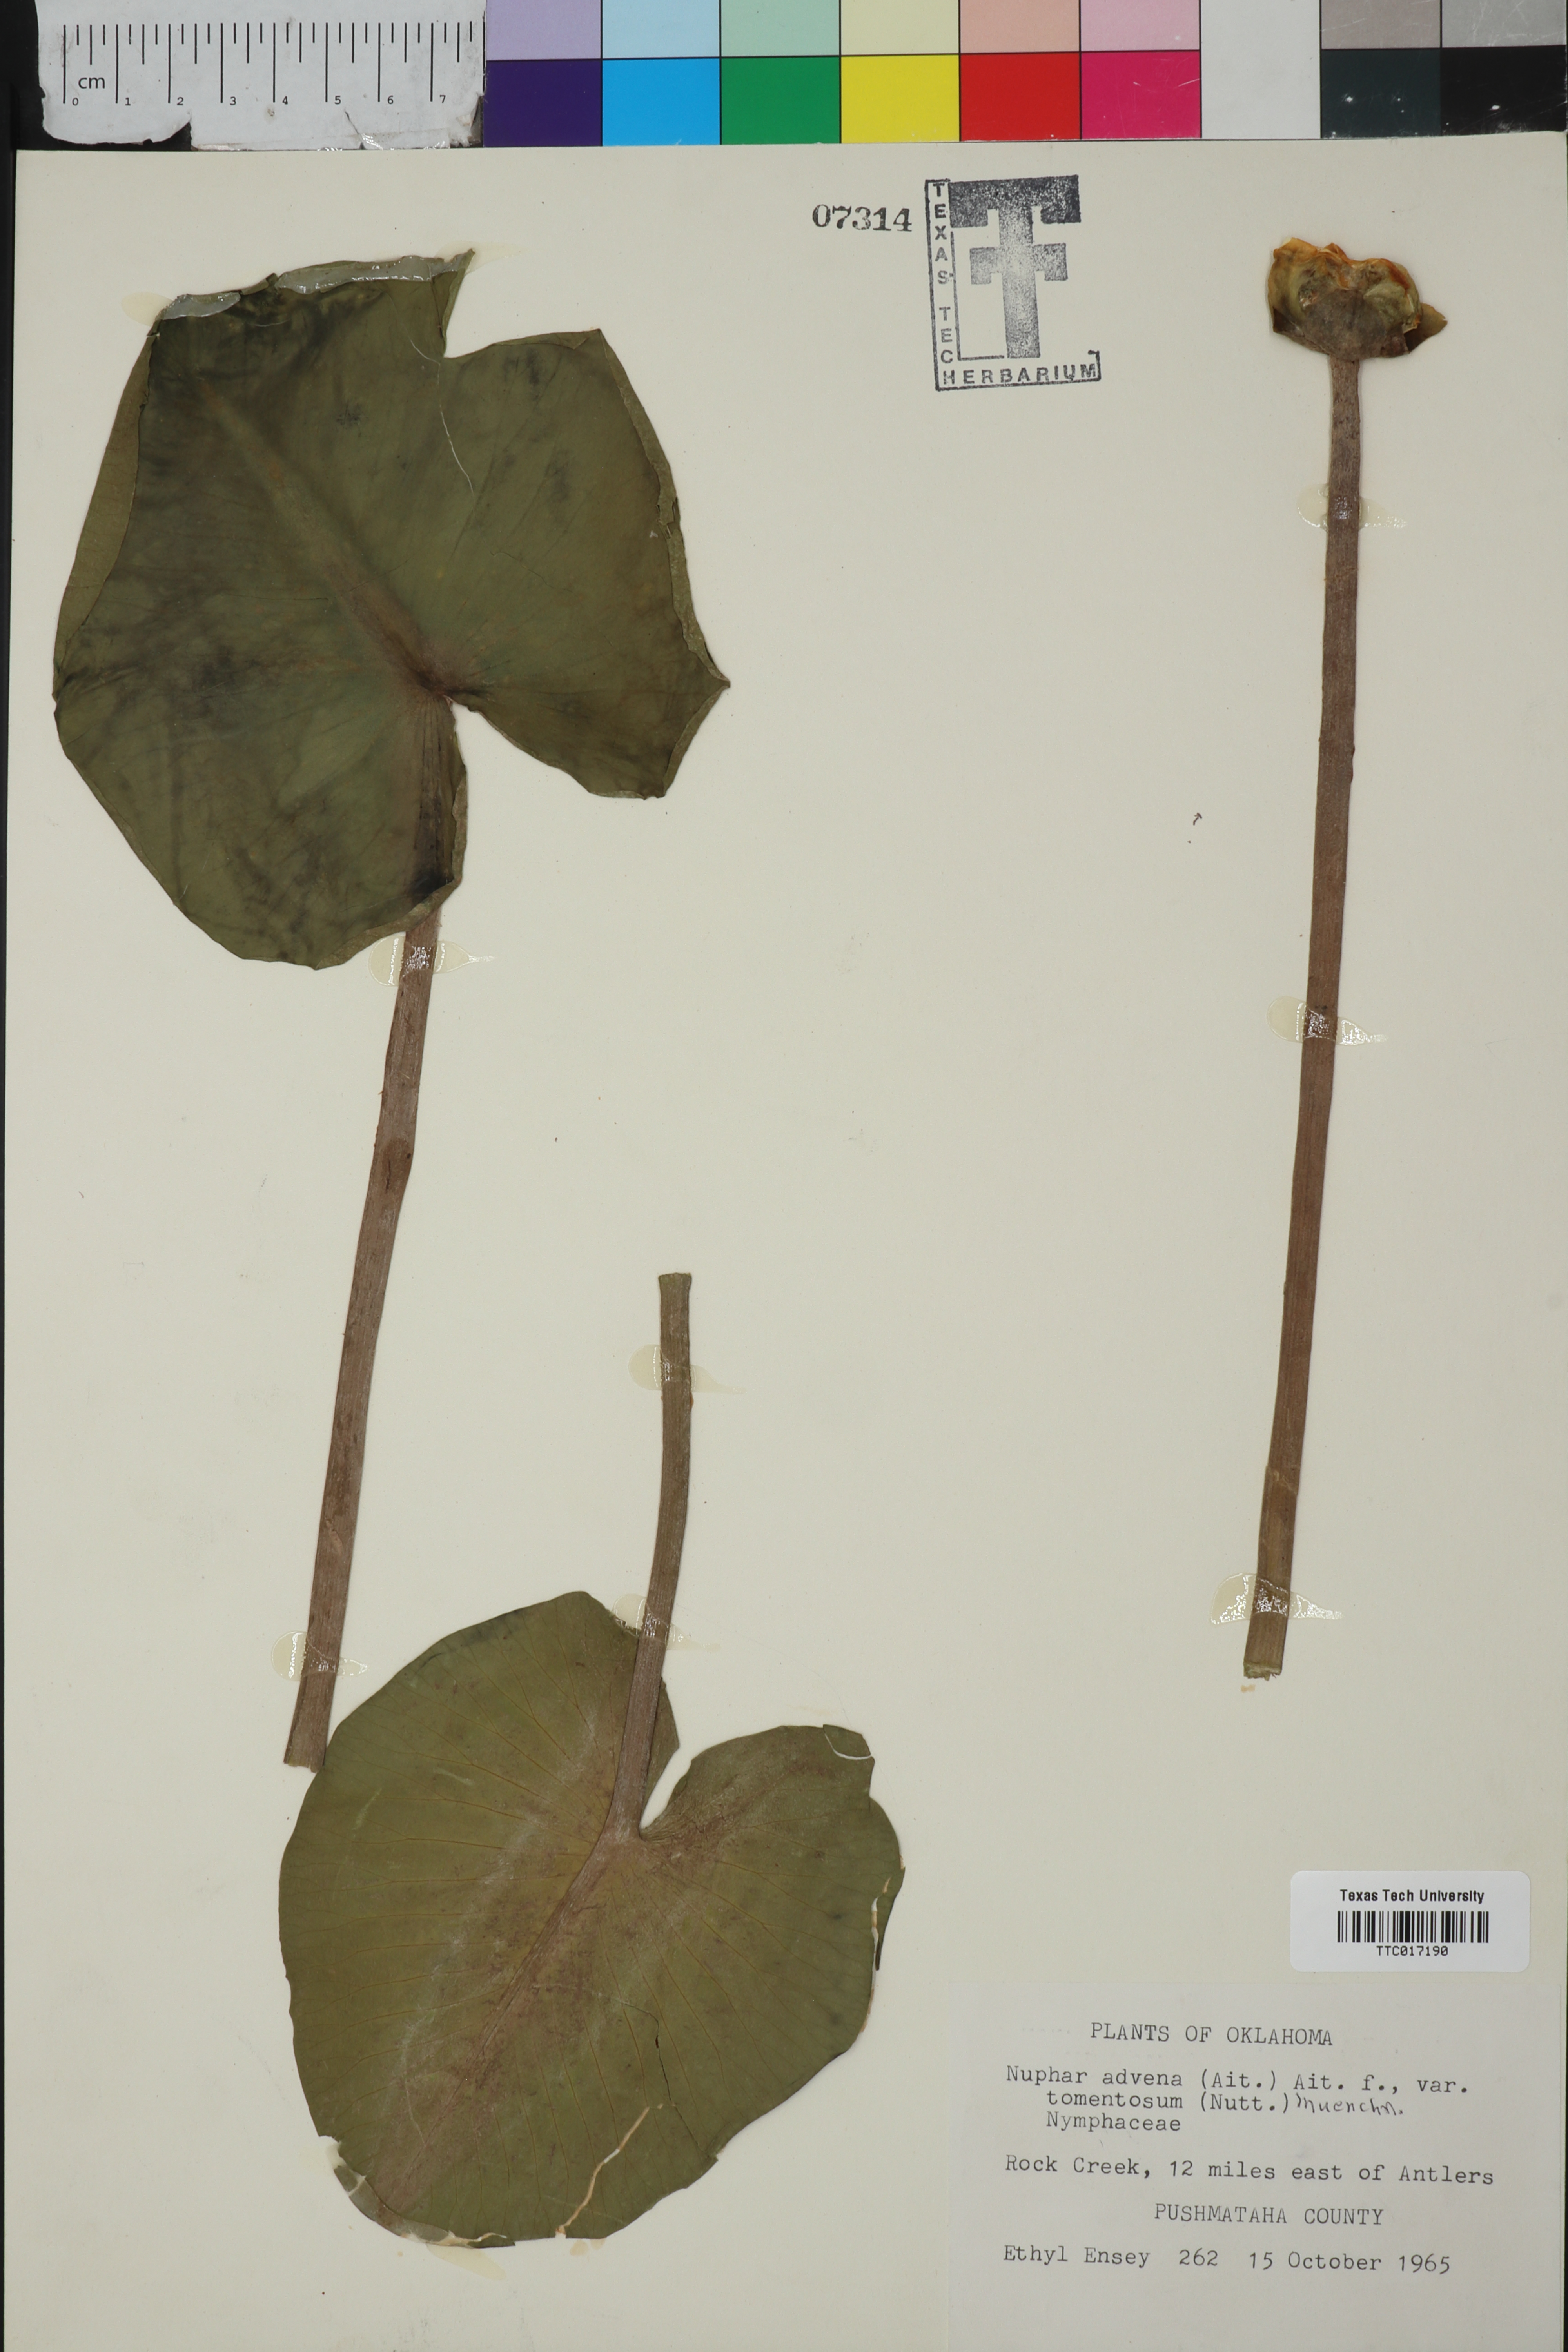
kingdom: Plantae
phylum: Tracheophyta
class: Magnoliopsida
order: Nymphaeales
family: Nymphaeaceae
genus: Nuphar
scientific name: Nuphar advena
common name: Spatter-dock
